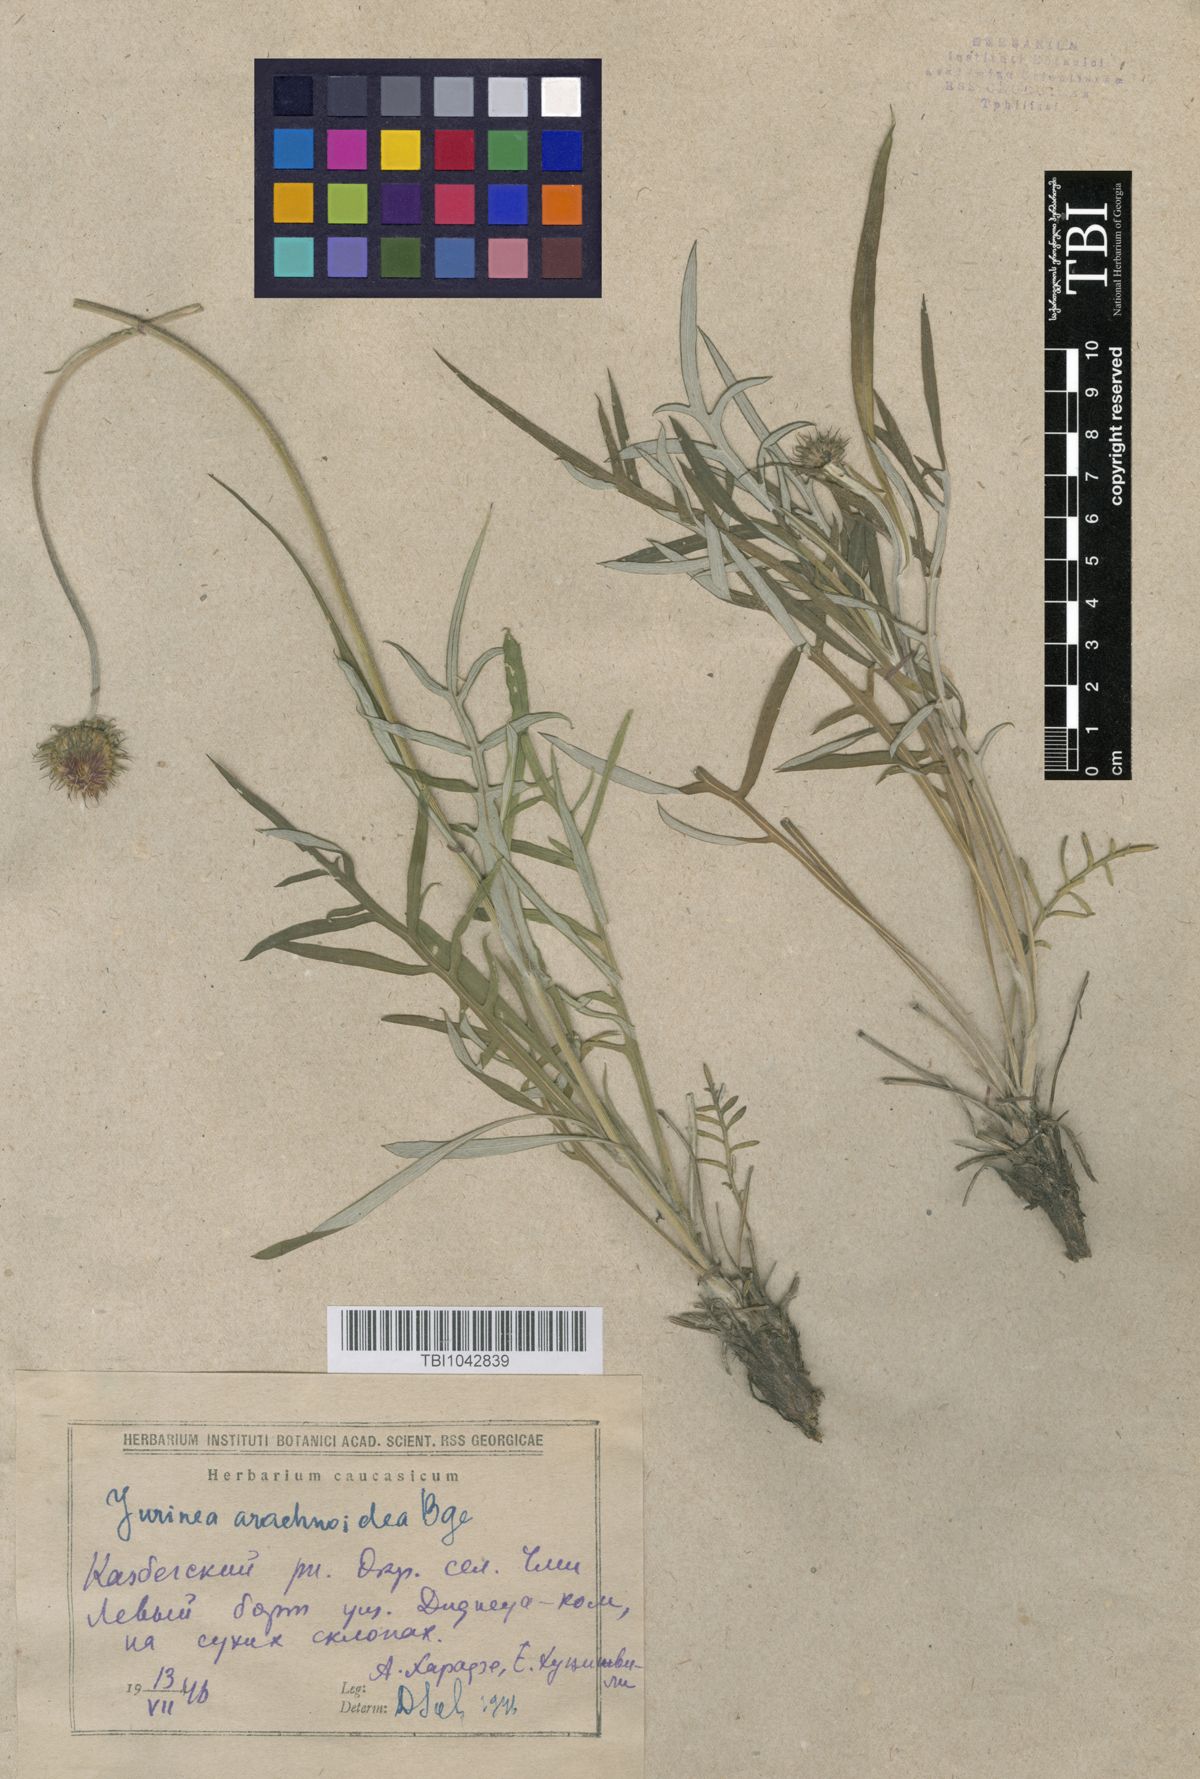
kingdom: Plantae
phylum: Tracheophyta
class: Magnoliopsida
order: Asterales
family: Asteraceae
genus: Jurinea
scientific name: Jurinea blanda
